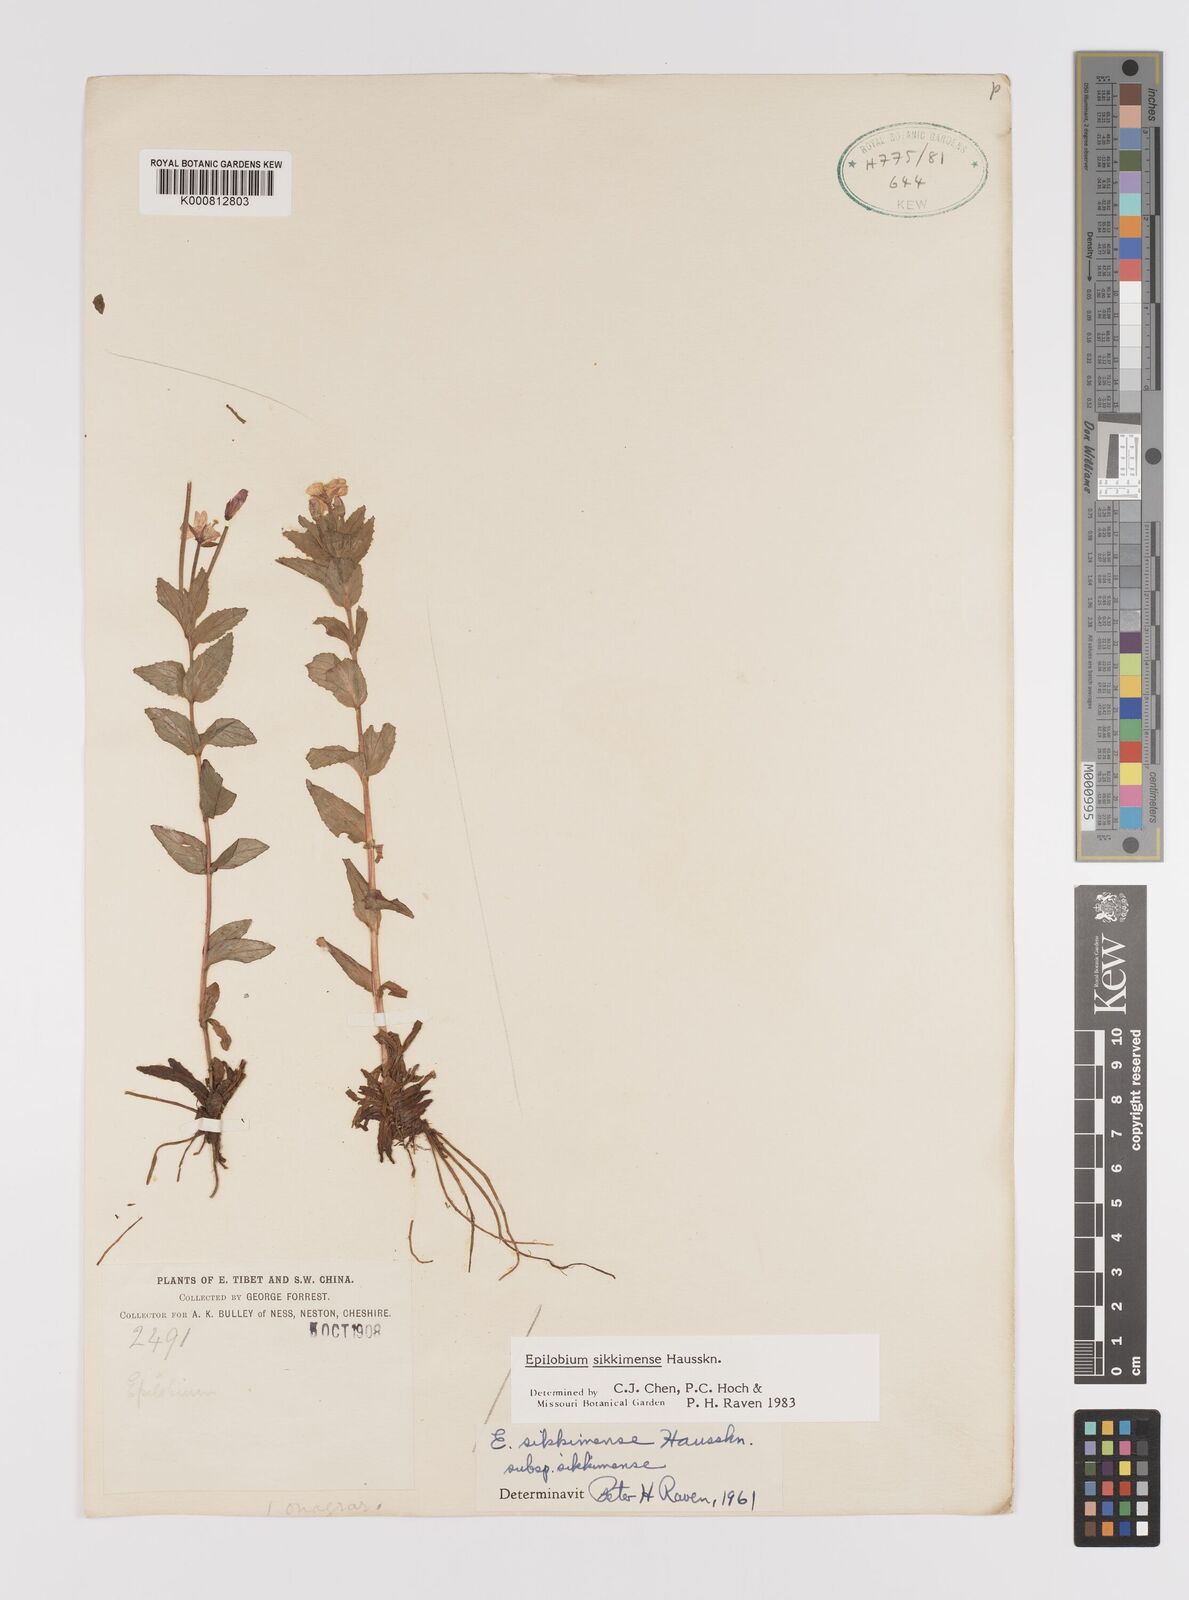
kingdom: Plantae
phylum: Tracheophyta
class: Magnoliopsida
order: Myrtales
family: Onagraceae
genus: Epilobium
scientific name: Epilobium sikkimense
